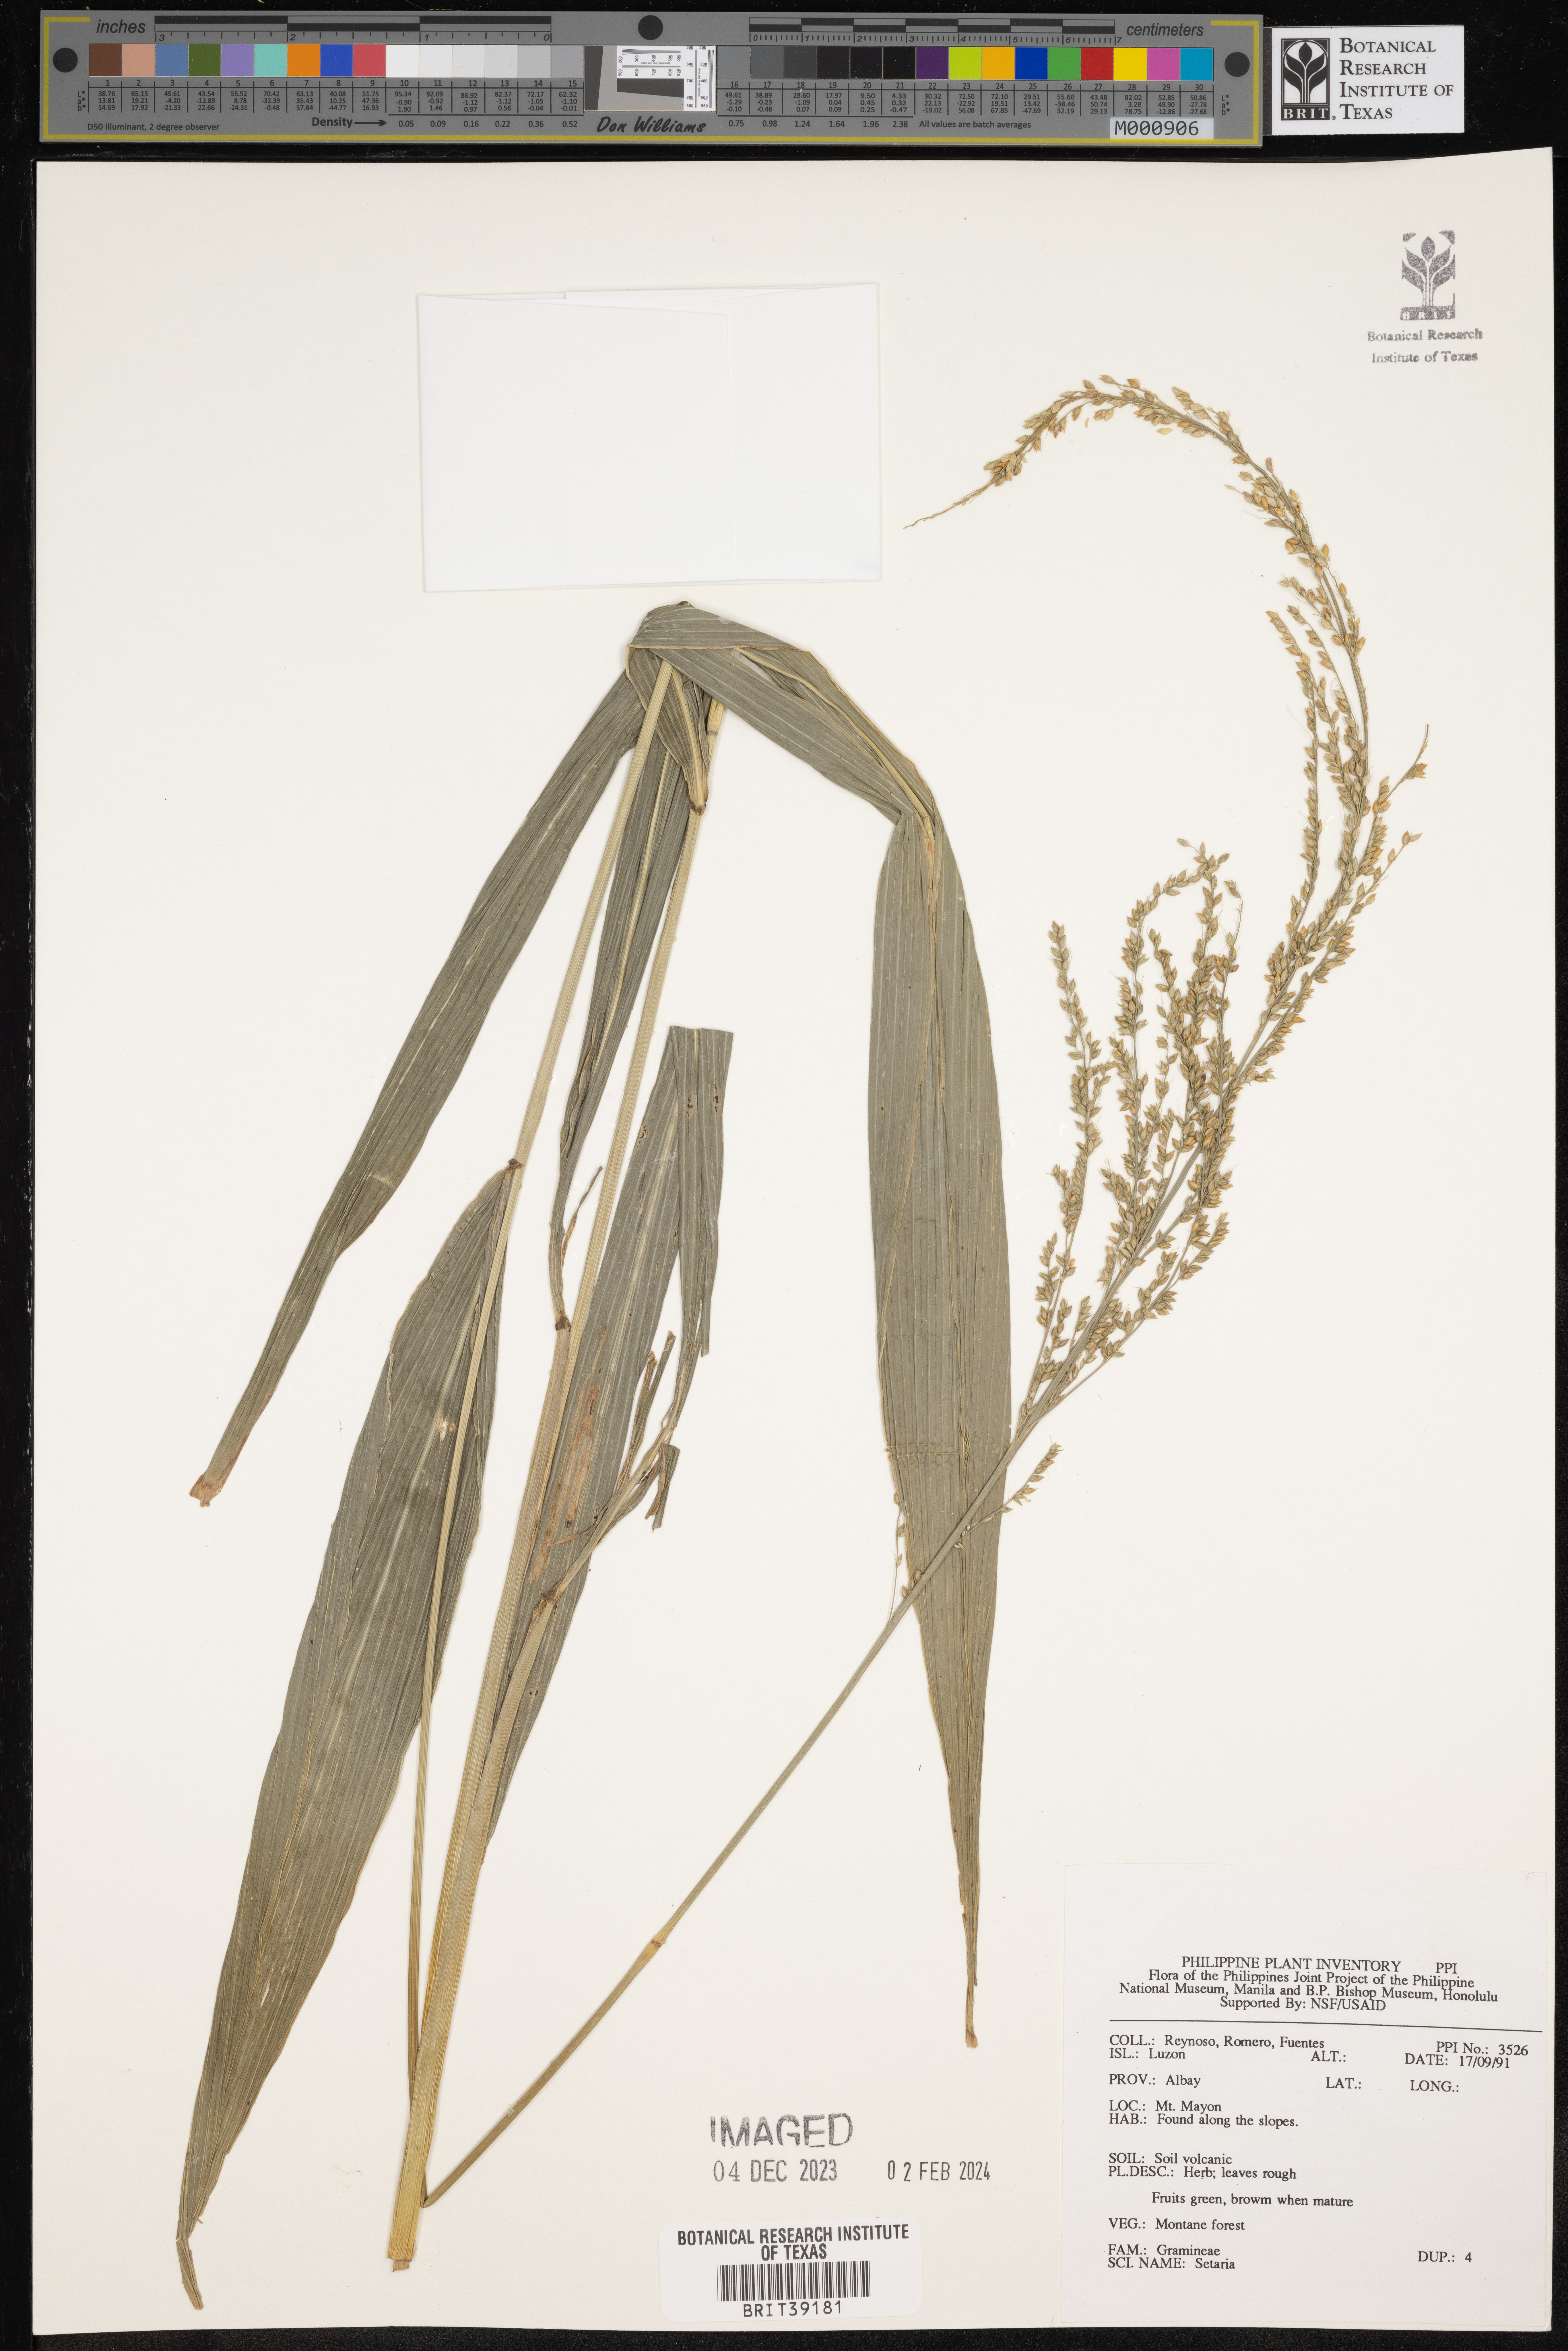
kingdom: Plantae
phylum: Tracheophyta
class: Liliopsida
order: Poales
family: Poaceae
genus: Setaria
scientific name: Setaria
